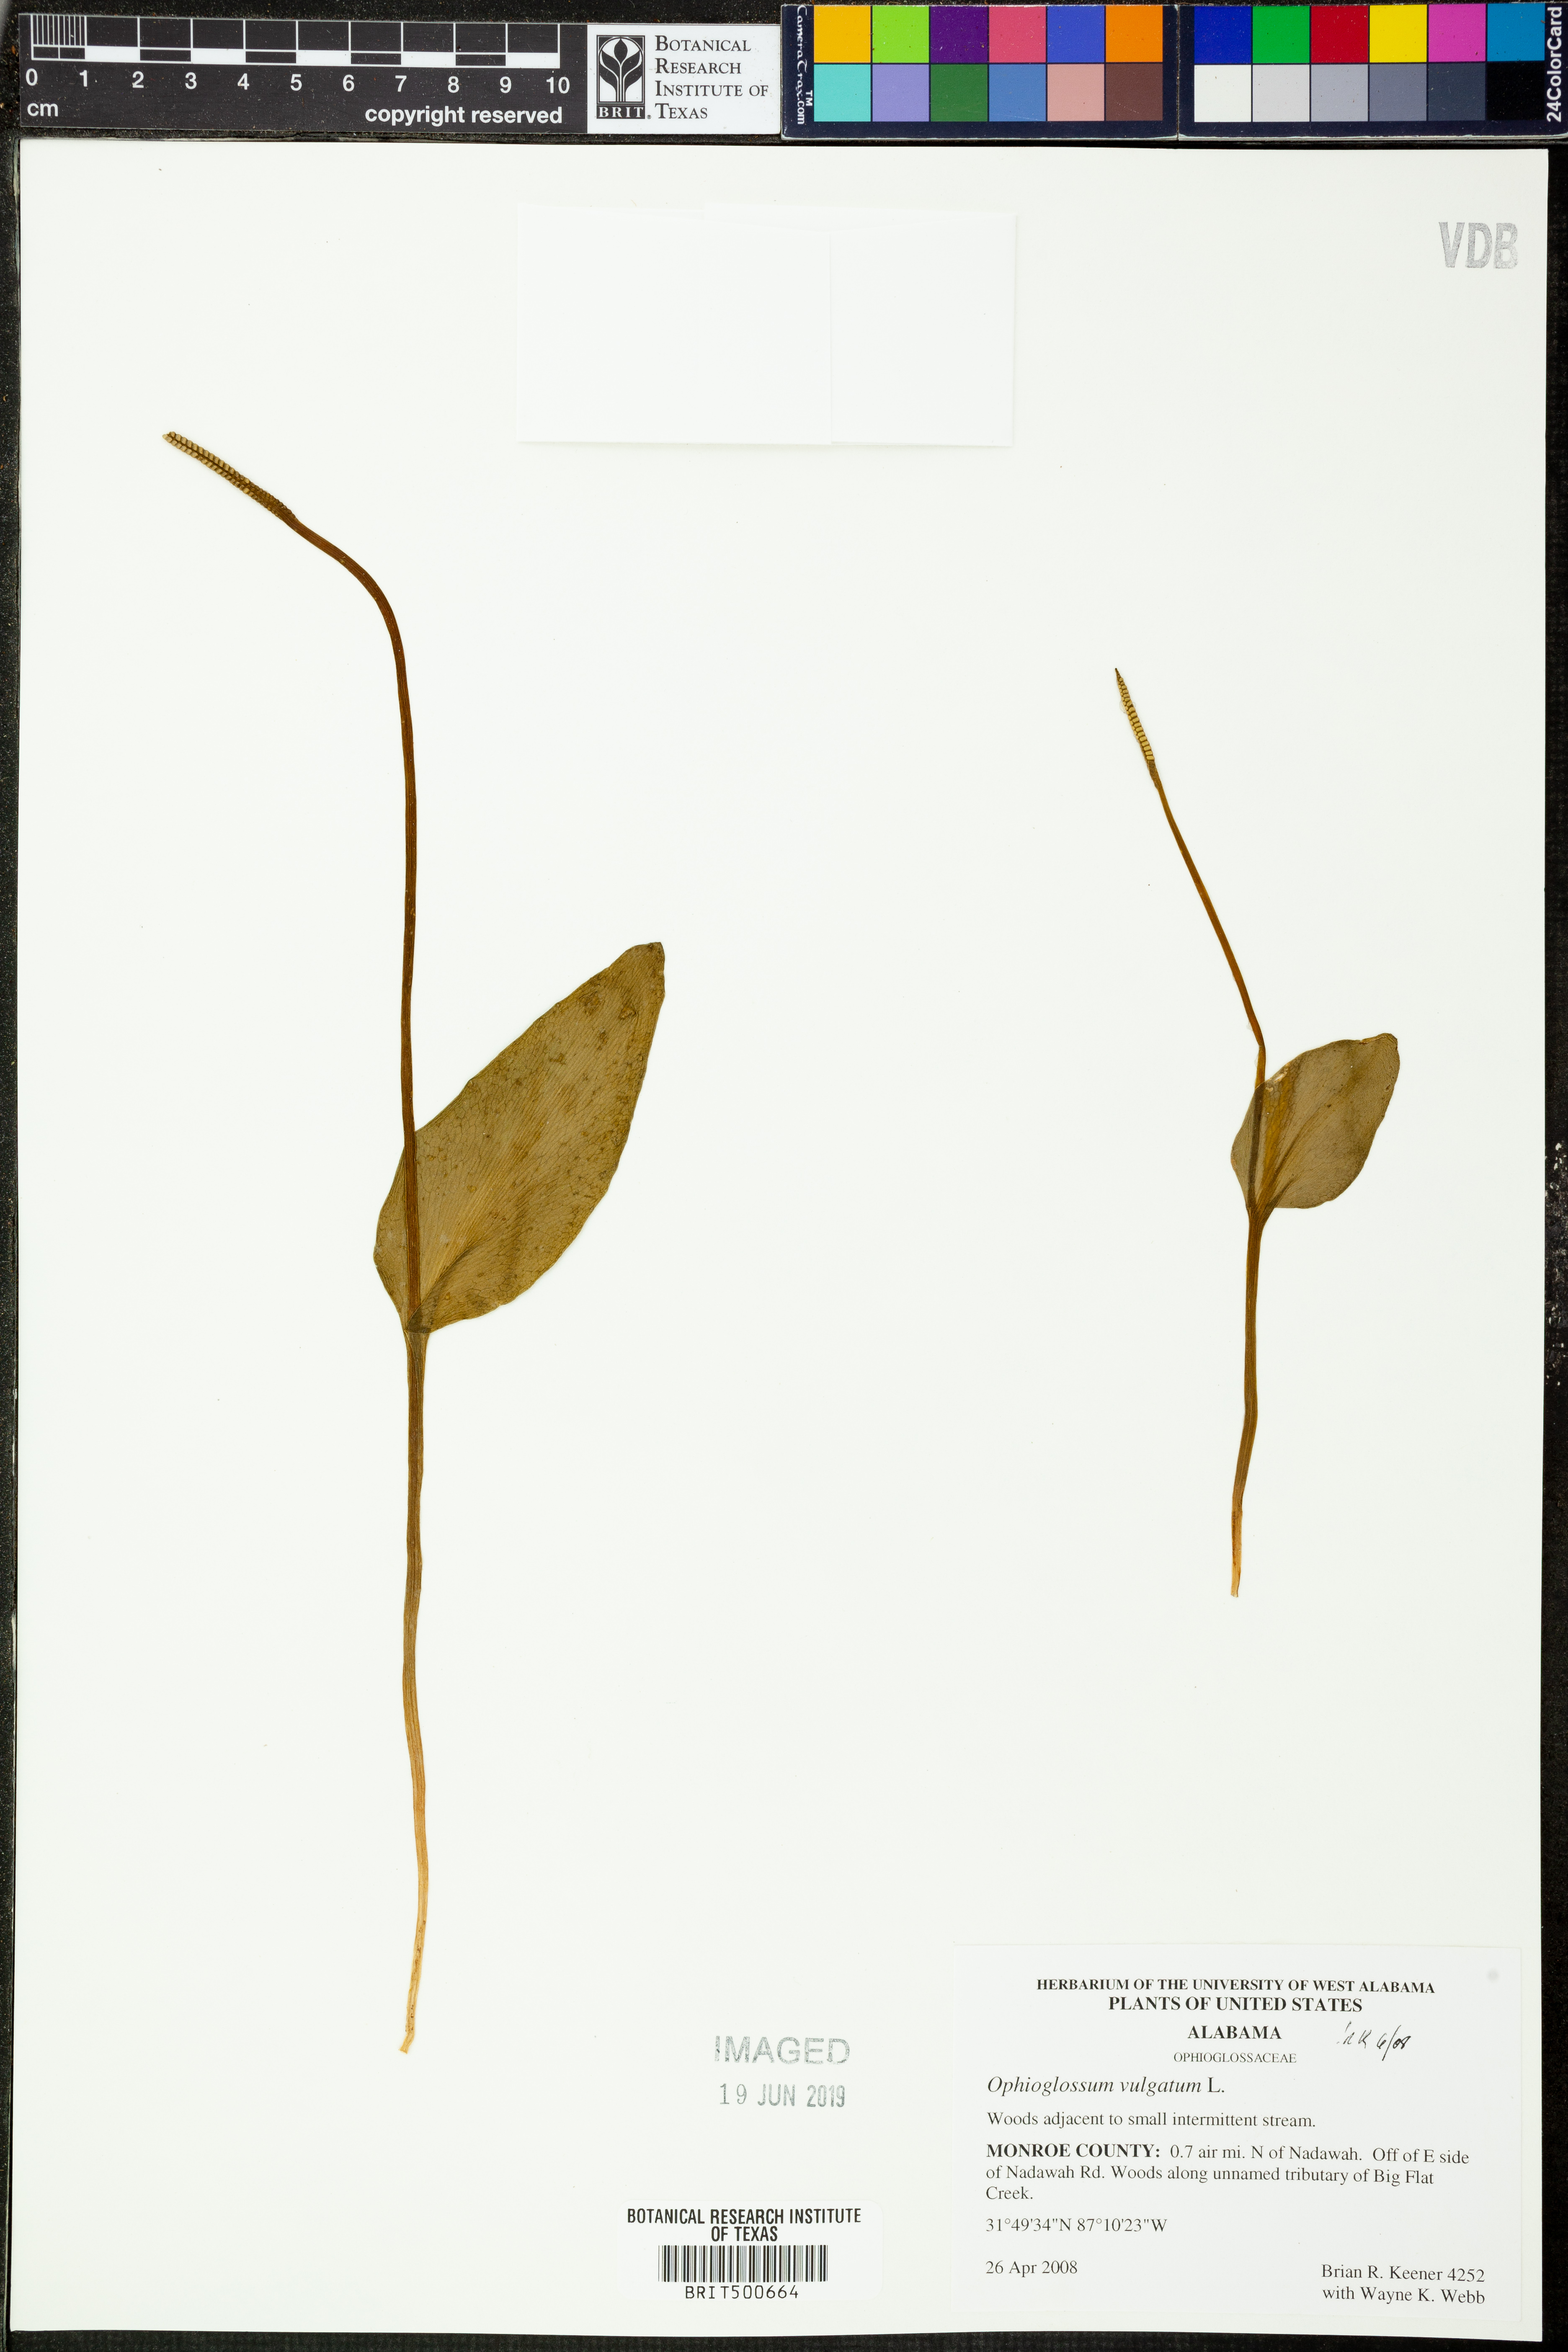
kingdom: Plantae
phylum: Tracheophyta
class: Polypodiopsida
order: Ophioglossales
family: Ophioglossaceae
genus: Ophioglossum
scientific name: Ophioglossum vulgatum
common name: Adder's-tongue
